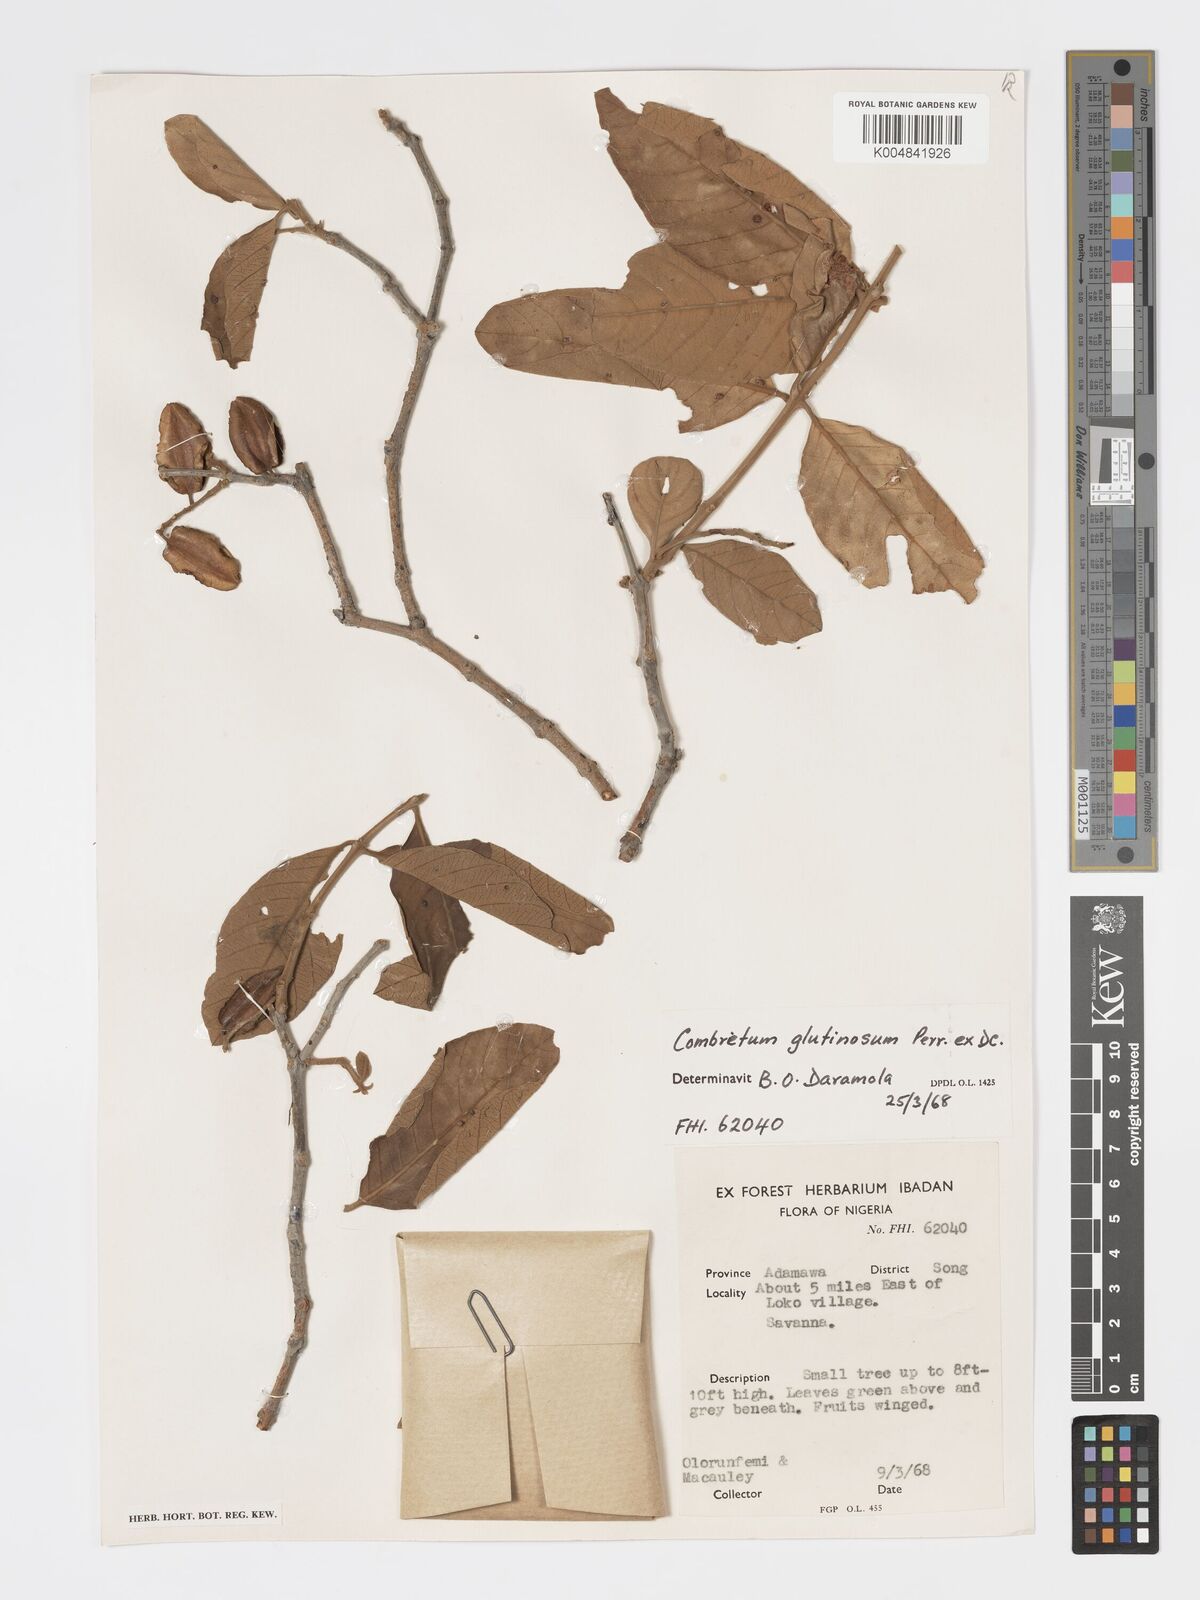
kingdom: Plantae
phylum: Tracheophyta
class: Magnoliopsida
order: Myrtales
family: Combretaceae
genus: Combretum
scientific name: Combretum
